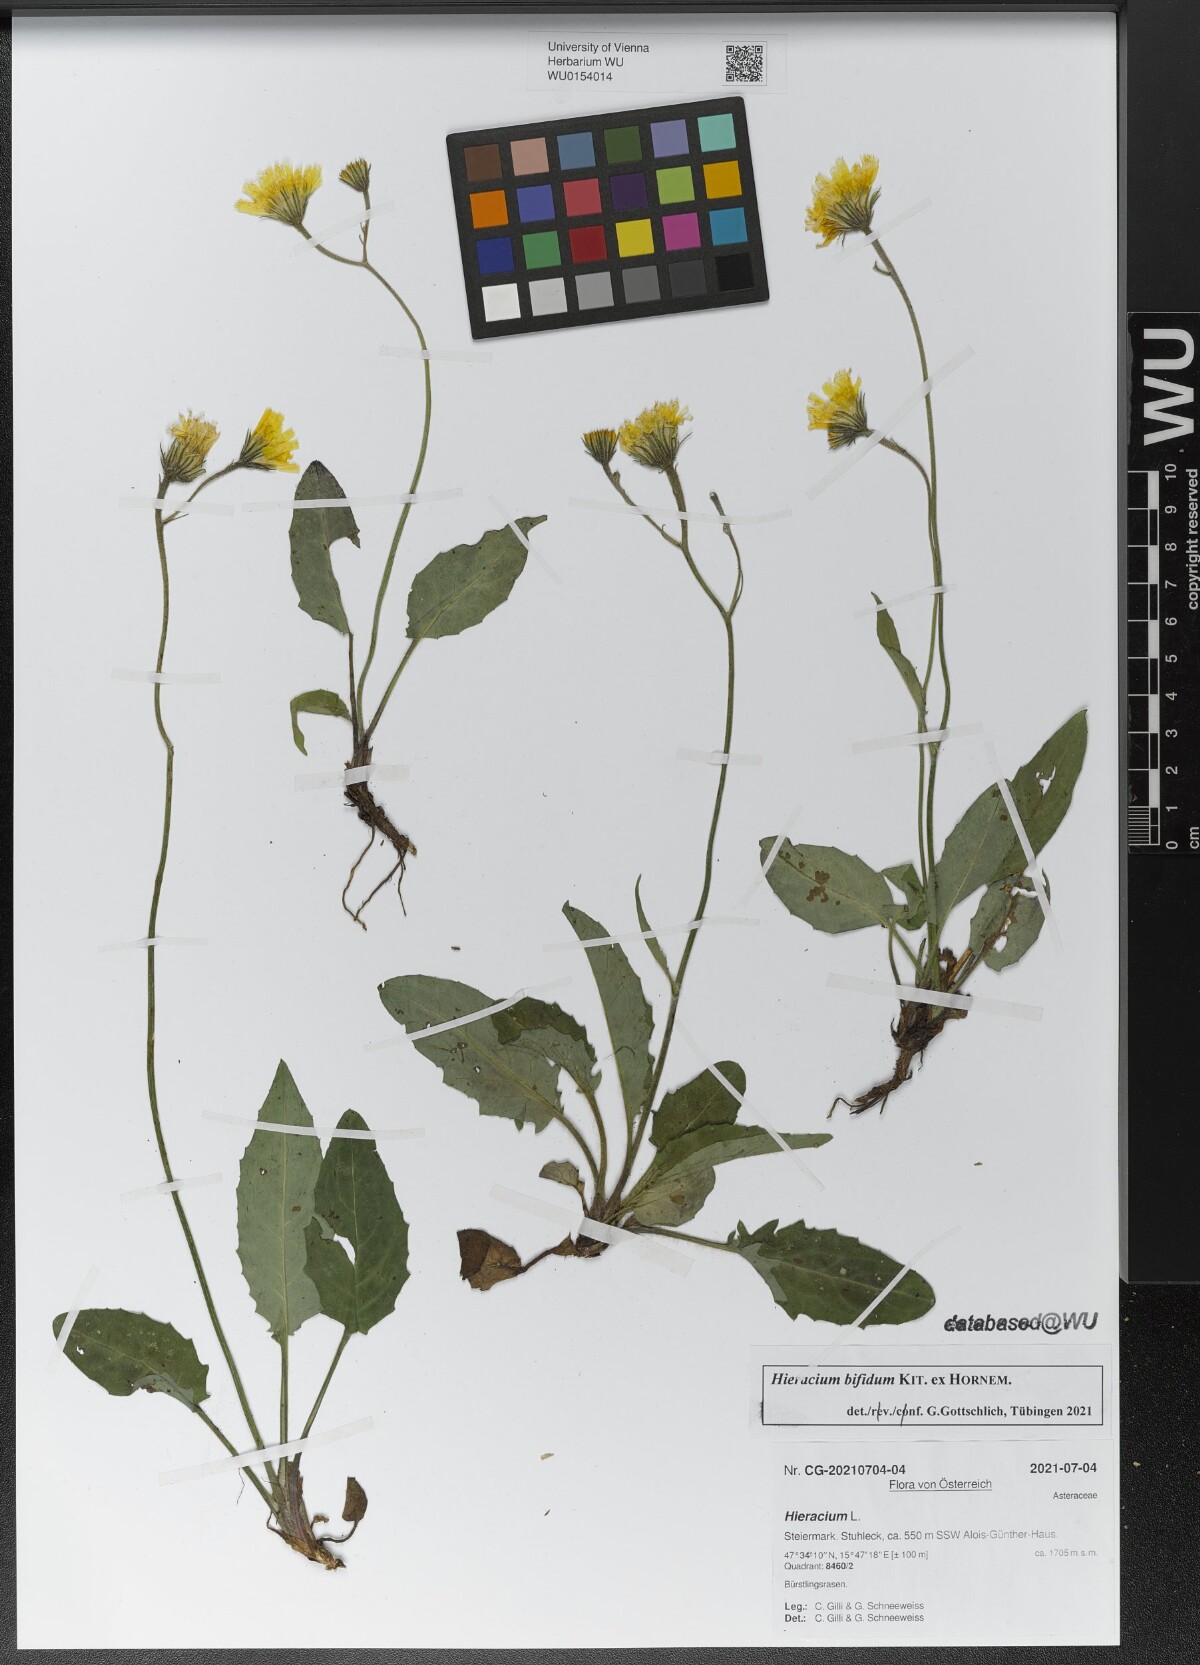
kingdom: Plantae
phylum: Tracheophyta
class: Magnoliopsida
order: Asterales
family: Asteraceae
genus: Hieracium
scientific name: Hieracium bifidum
